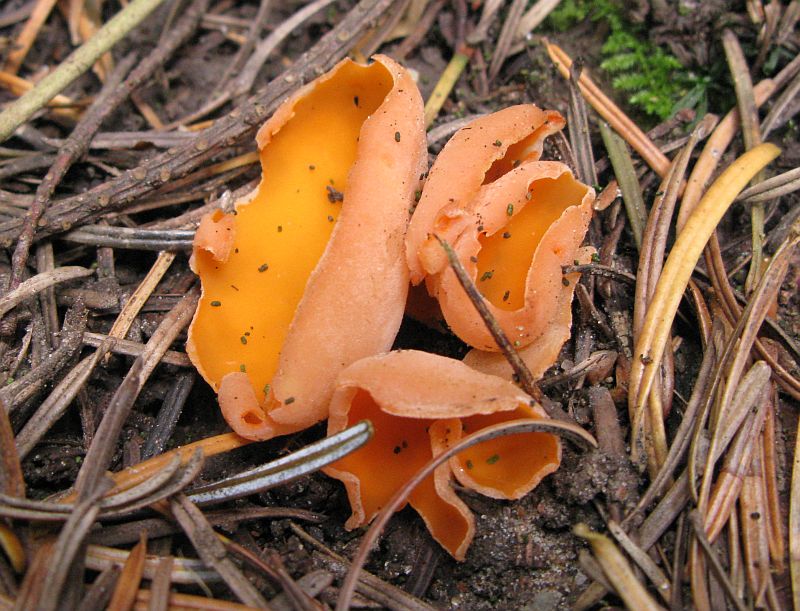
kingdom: Fungi
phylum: Ascomycota
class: Pezizomycetes
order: Pezizales
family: Pyronemataceae
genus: Aleuria
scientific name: Aleuria aurantia
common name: almindelig orangebæger
